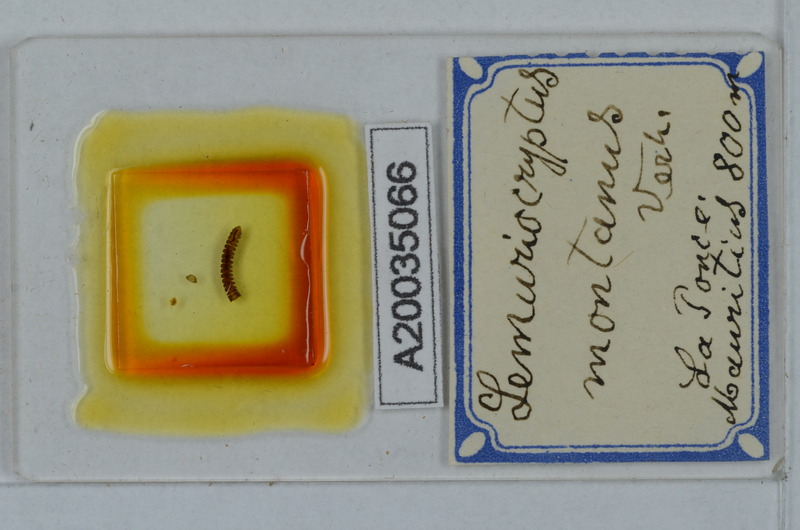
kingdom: Animalia
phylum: Arthropoda
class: Diplopoda
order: Polydesmida
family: Pyrgodesmidae
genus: Lemuriocryptus
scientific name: Lemuriocryptus montanus
